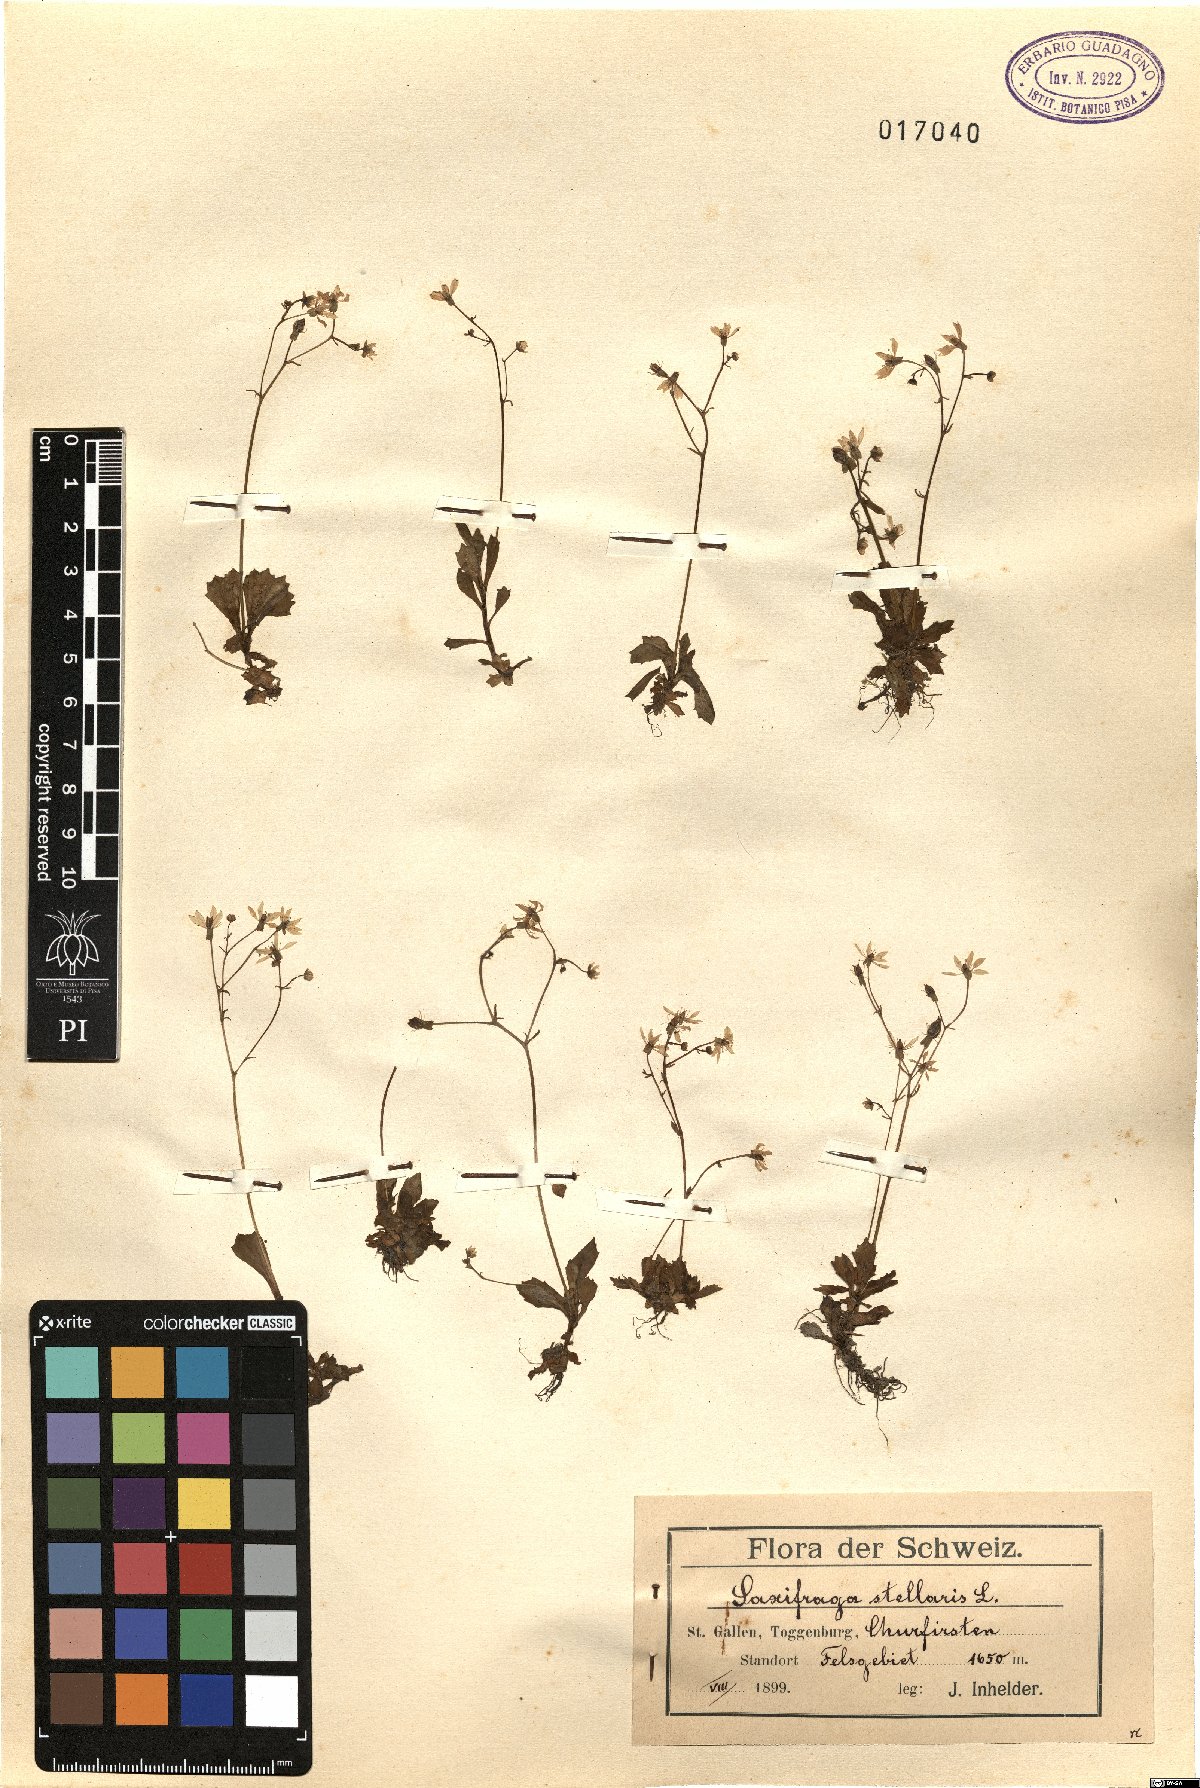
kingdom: Plantae
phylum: Tracheophyta
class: Magnoliopsida
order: Saxifragales
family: Saxifragaceae
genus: Micranthes
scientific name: Micranthes stellaris
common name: Starry saxifrage
